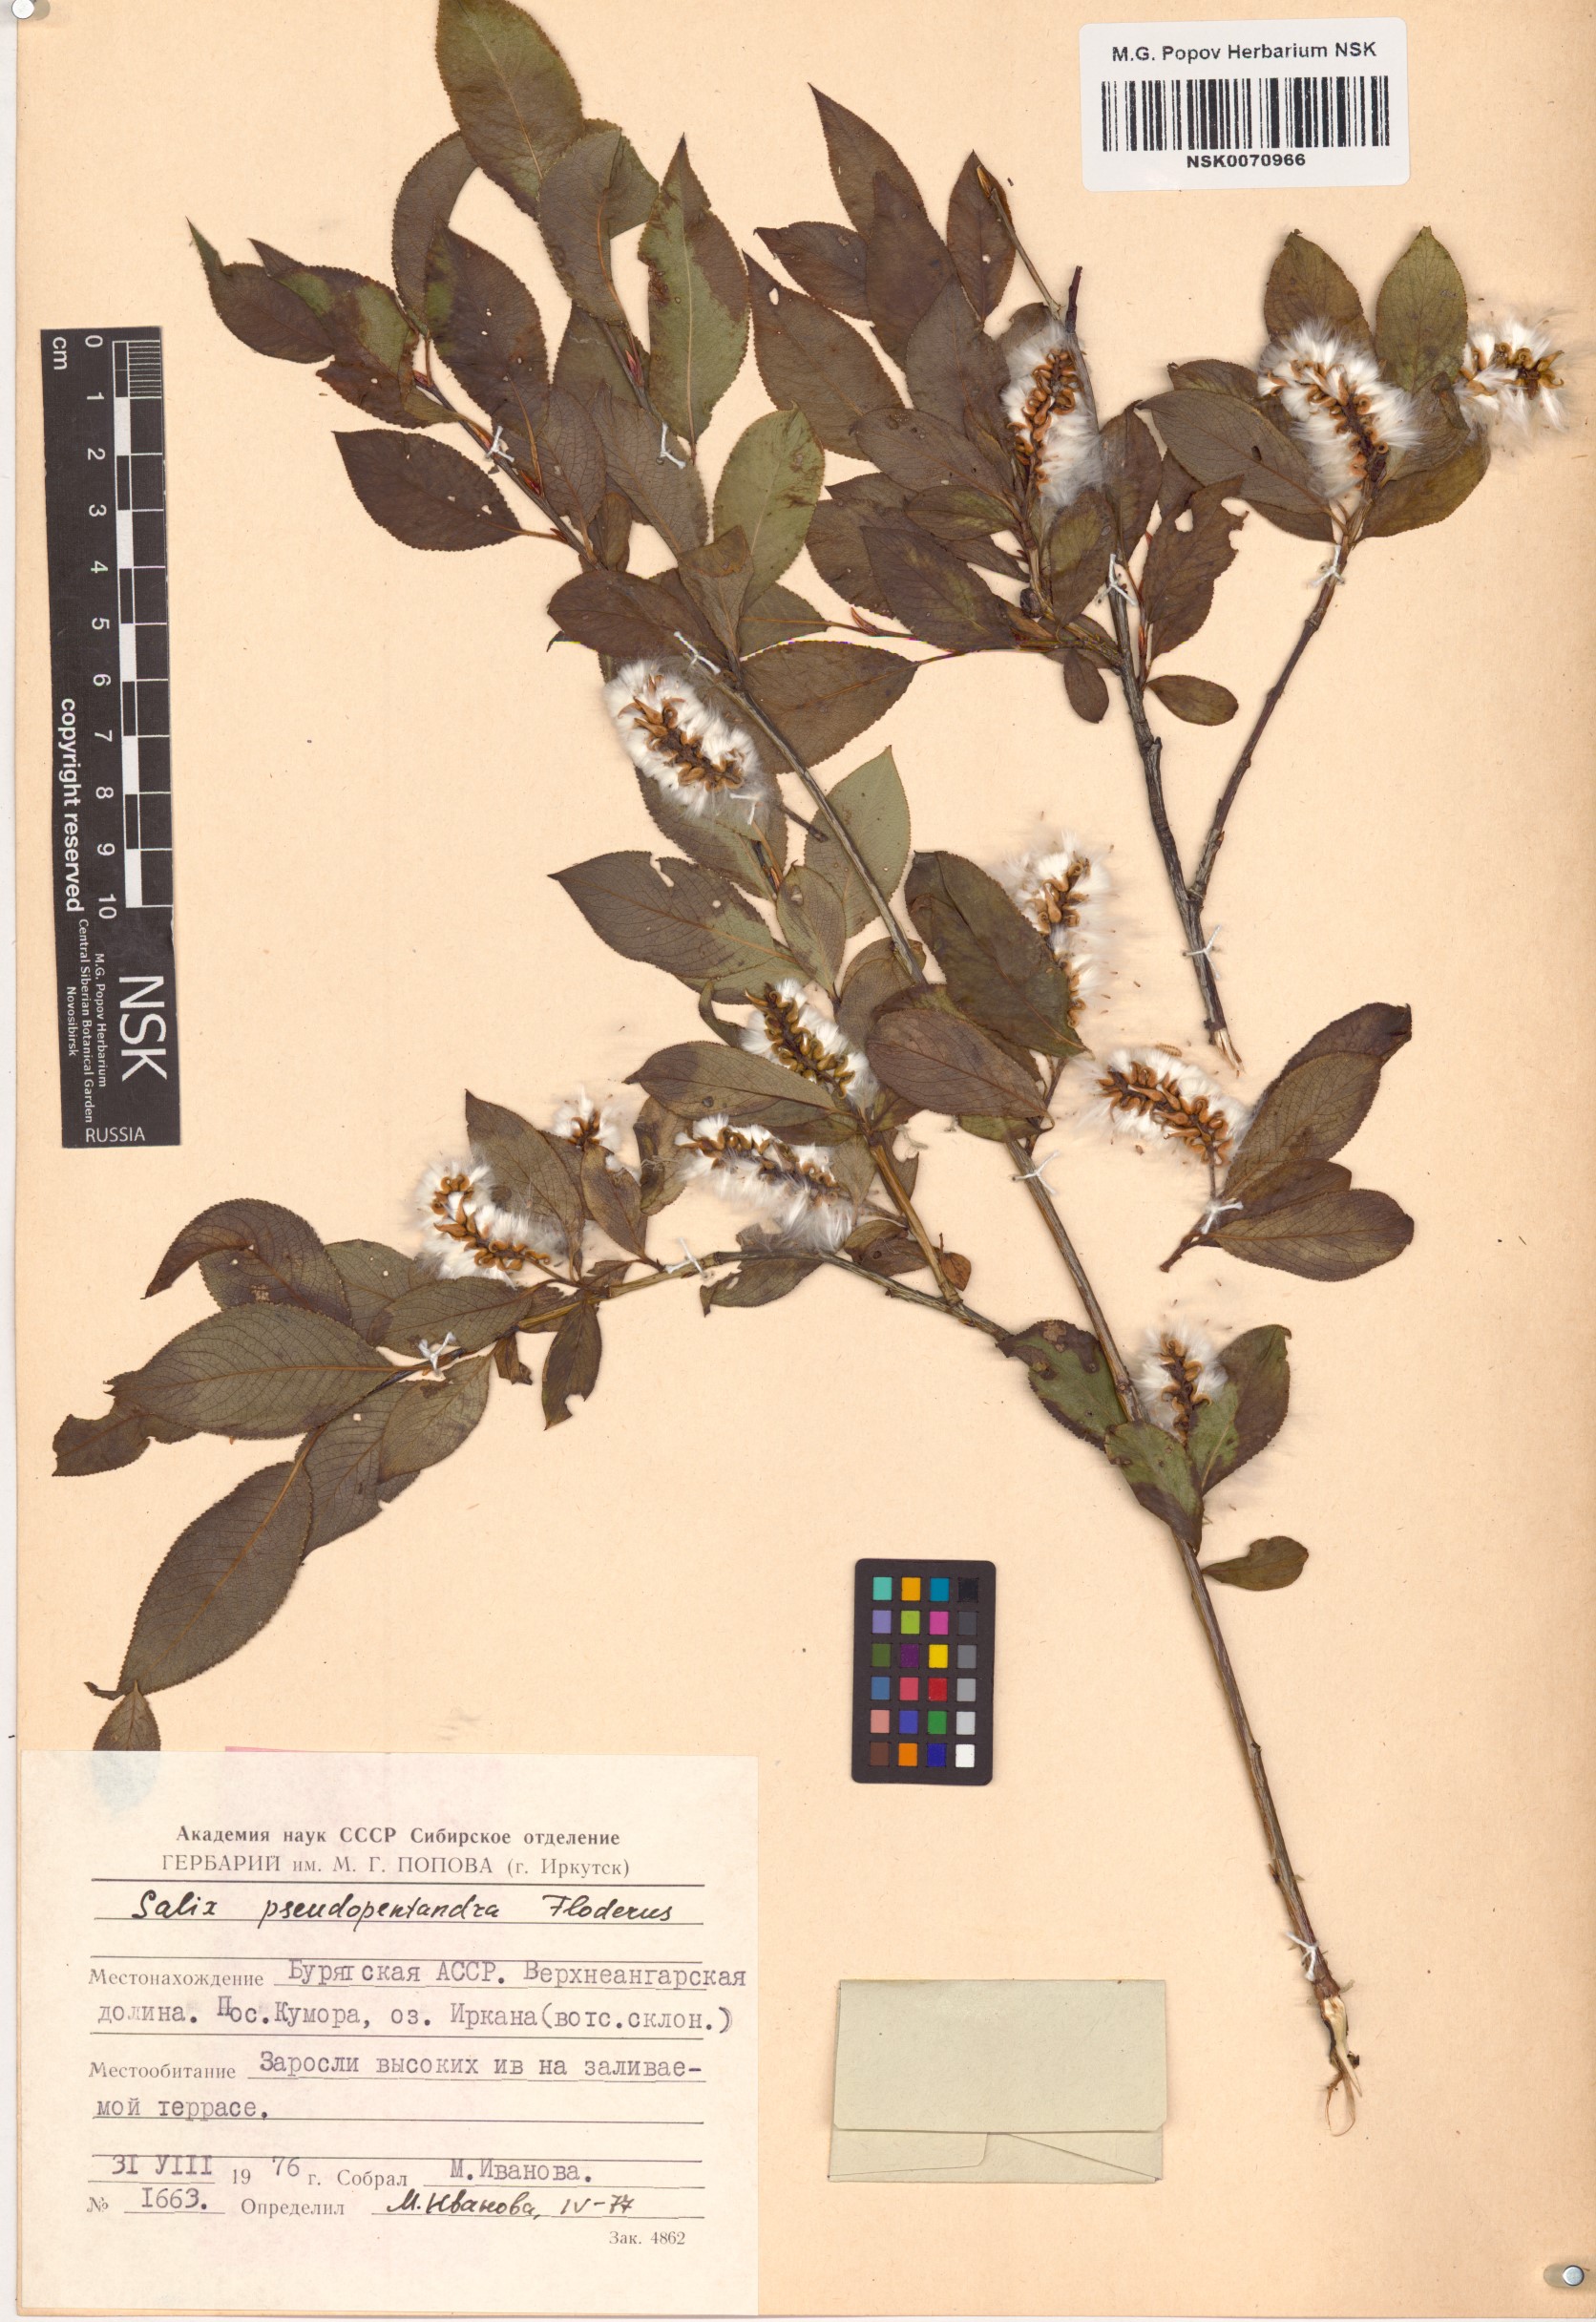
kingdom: Plantae
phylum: Tracheophyta
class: Magnoliopsida
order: Malpighiales
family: Salicaceae
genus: Salix
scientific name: Salix pseudopentandra
